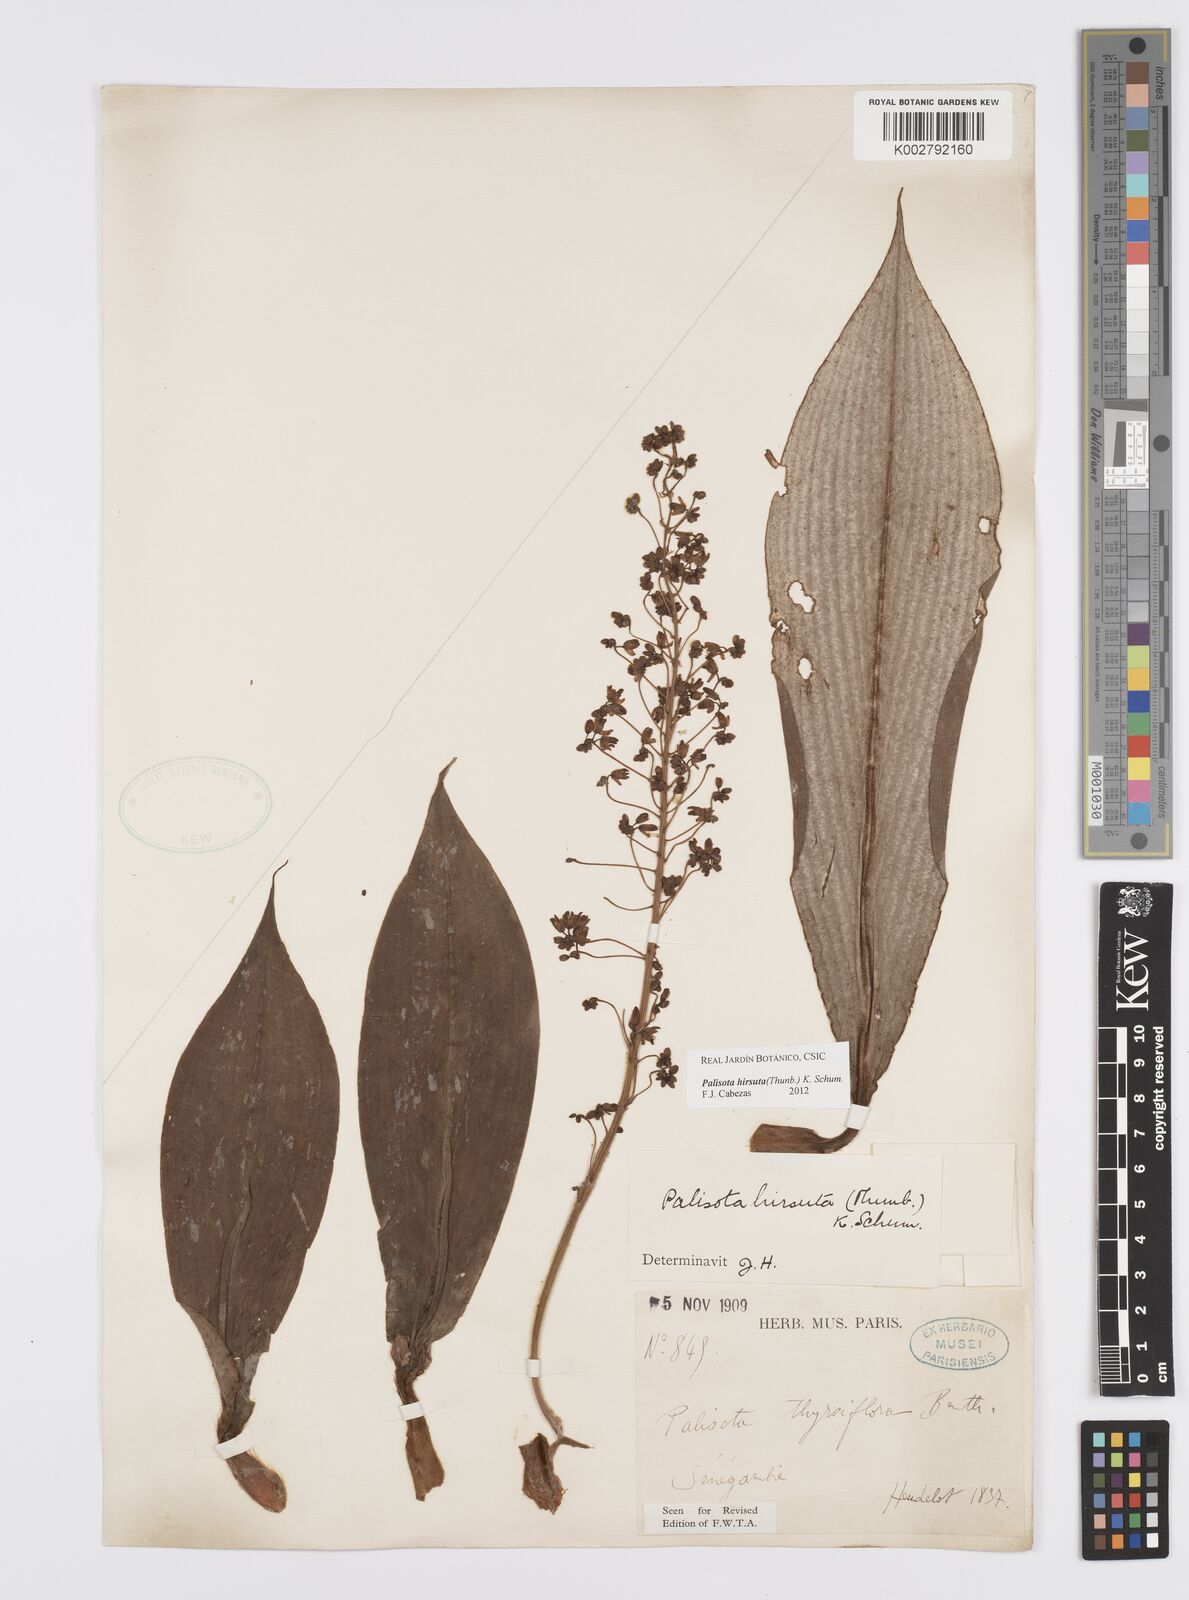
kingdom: Plantae
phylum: Tracheophyta
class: Liliopsida
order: Commelinales
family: Commelinaceae
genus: Palisota
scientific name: Palisota hirsuta
